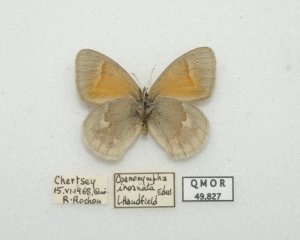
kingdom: Animalia
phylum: Arthropoda
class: Insecta
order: Lepidoptera
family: Nymphalidae
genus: Coenonympha
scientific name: Coenonympha tullia
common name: Large Heath
